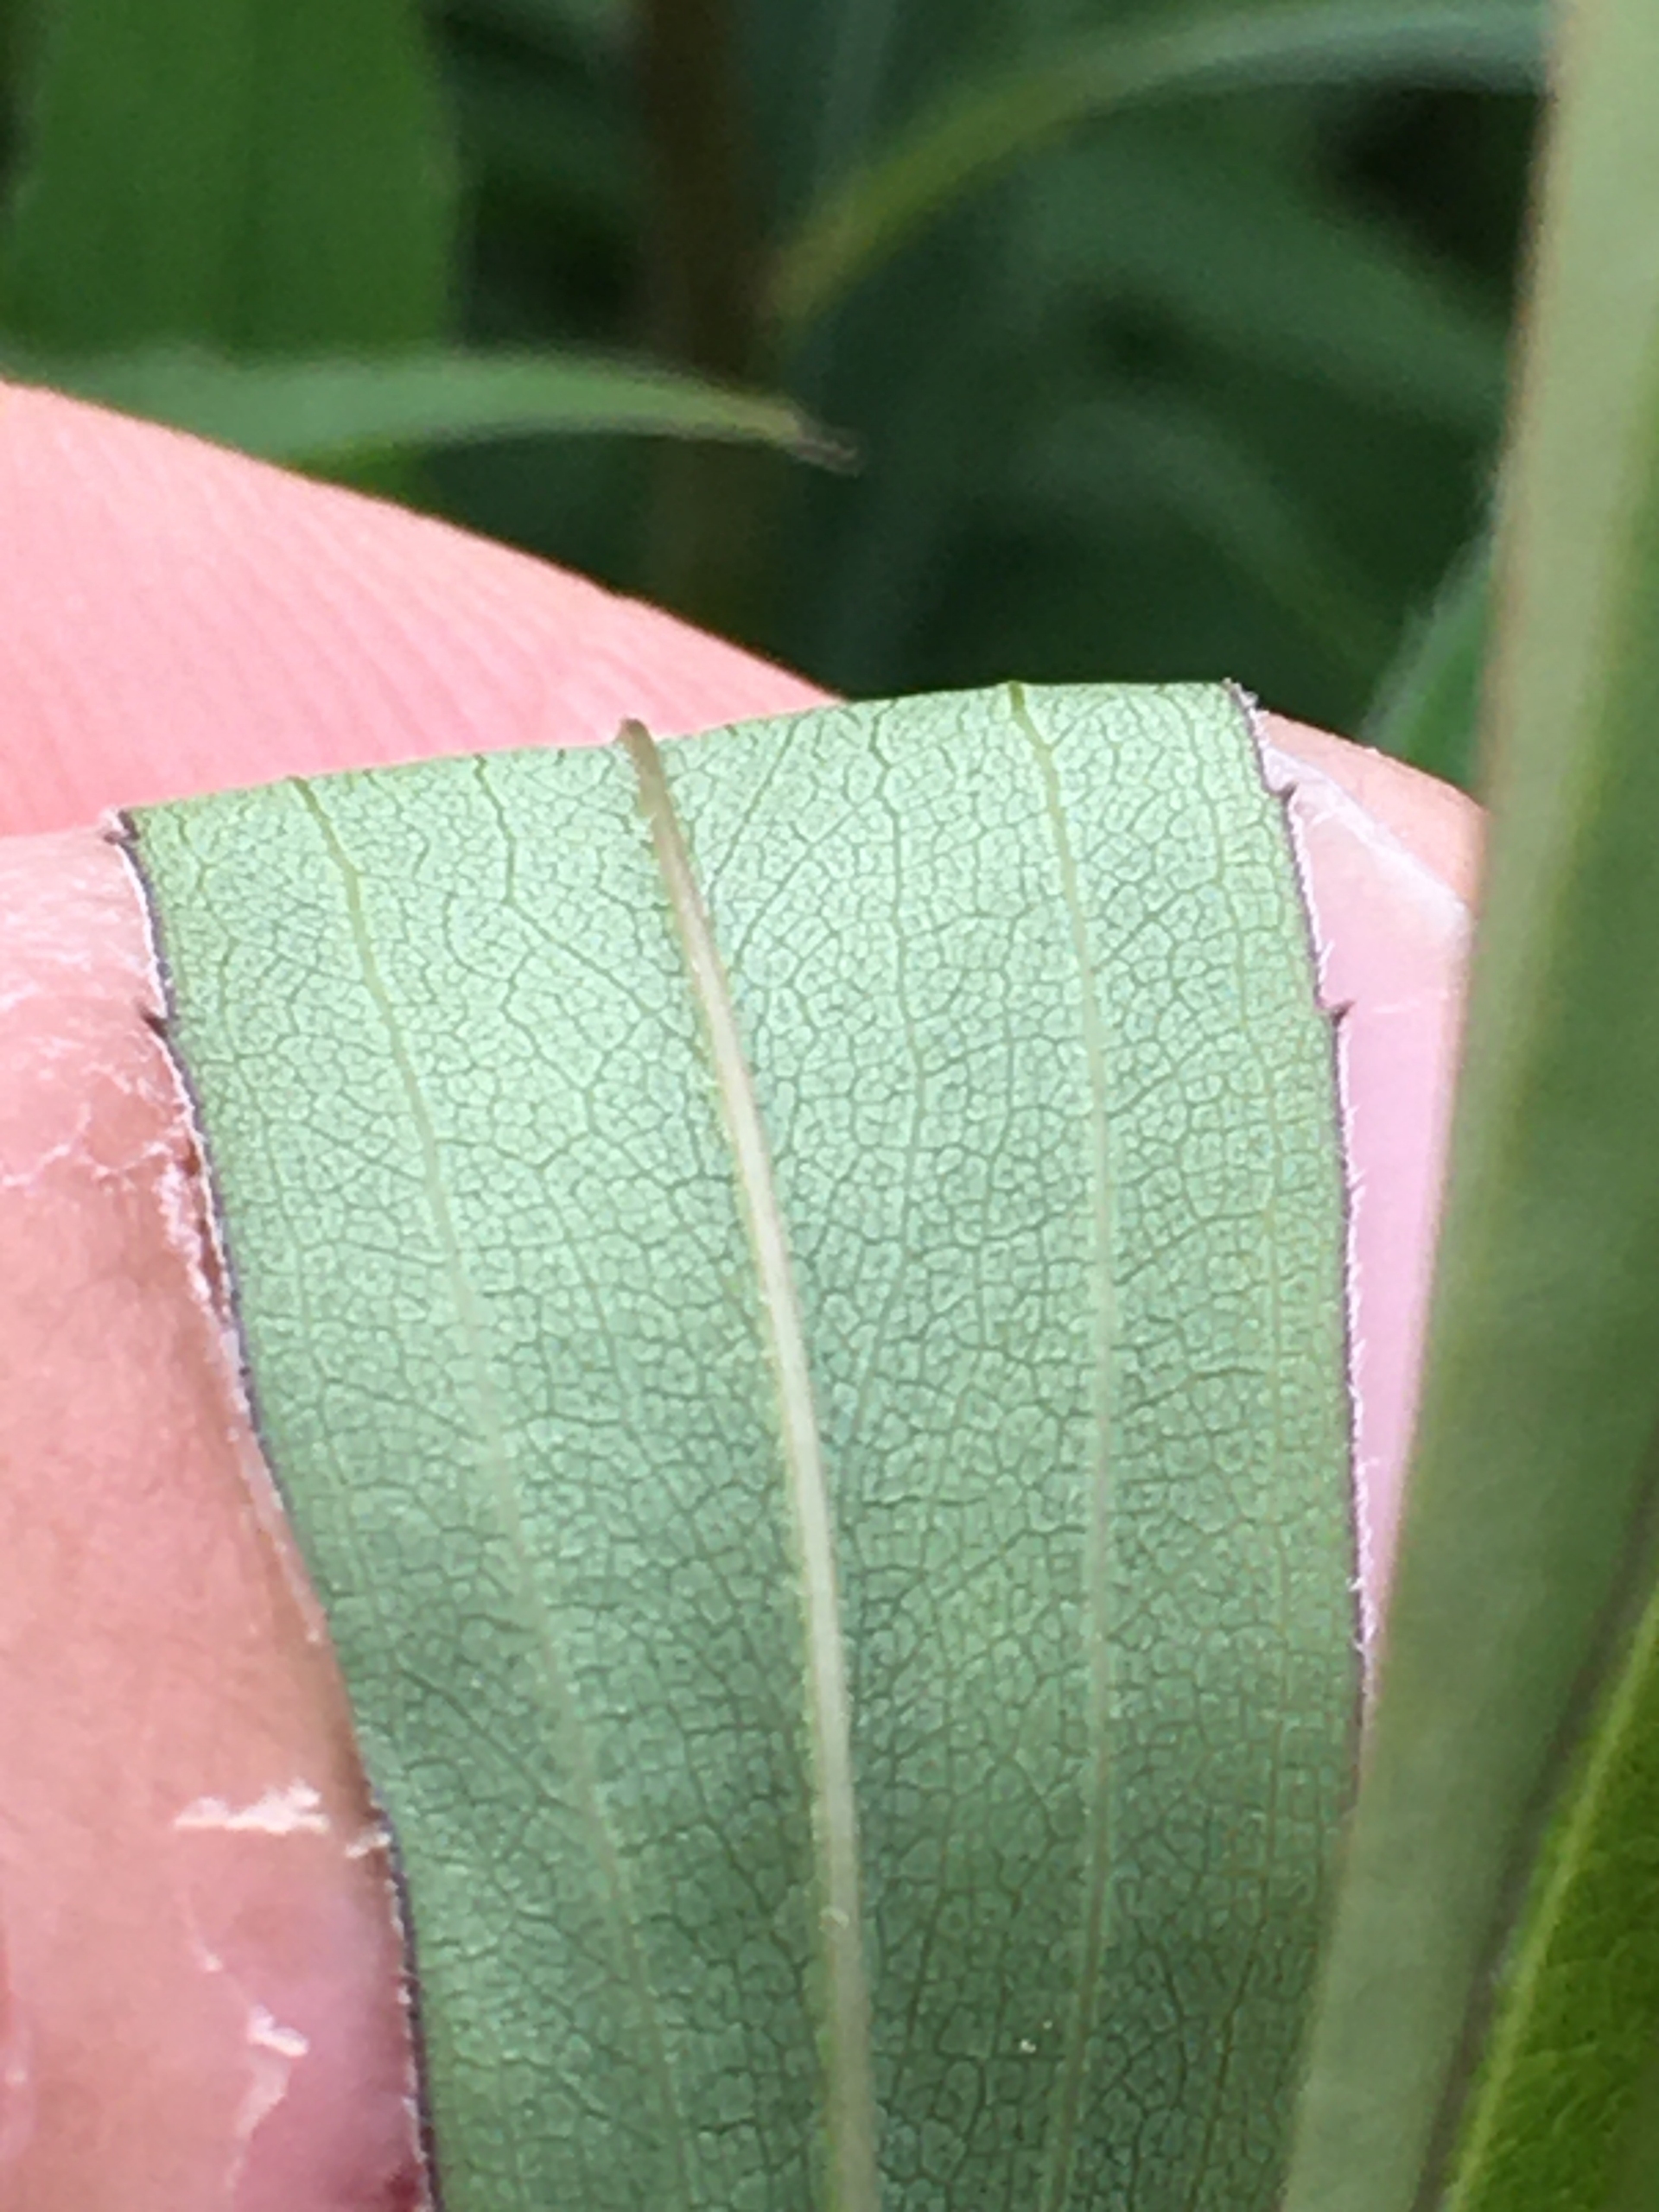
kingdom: Plantae
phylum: Tracheophyta
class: Magnoliopsida
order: Asterales
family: Asteraceae
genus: Solidago
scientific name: Solidago gigantea
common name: Sildig gyldenris
